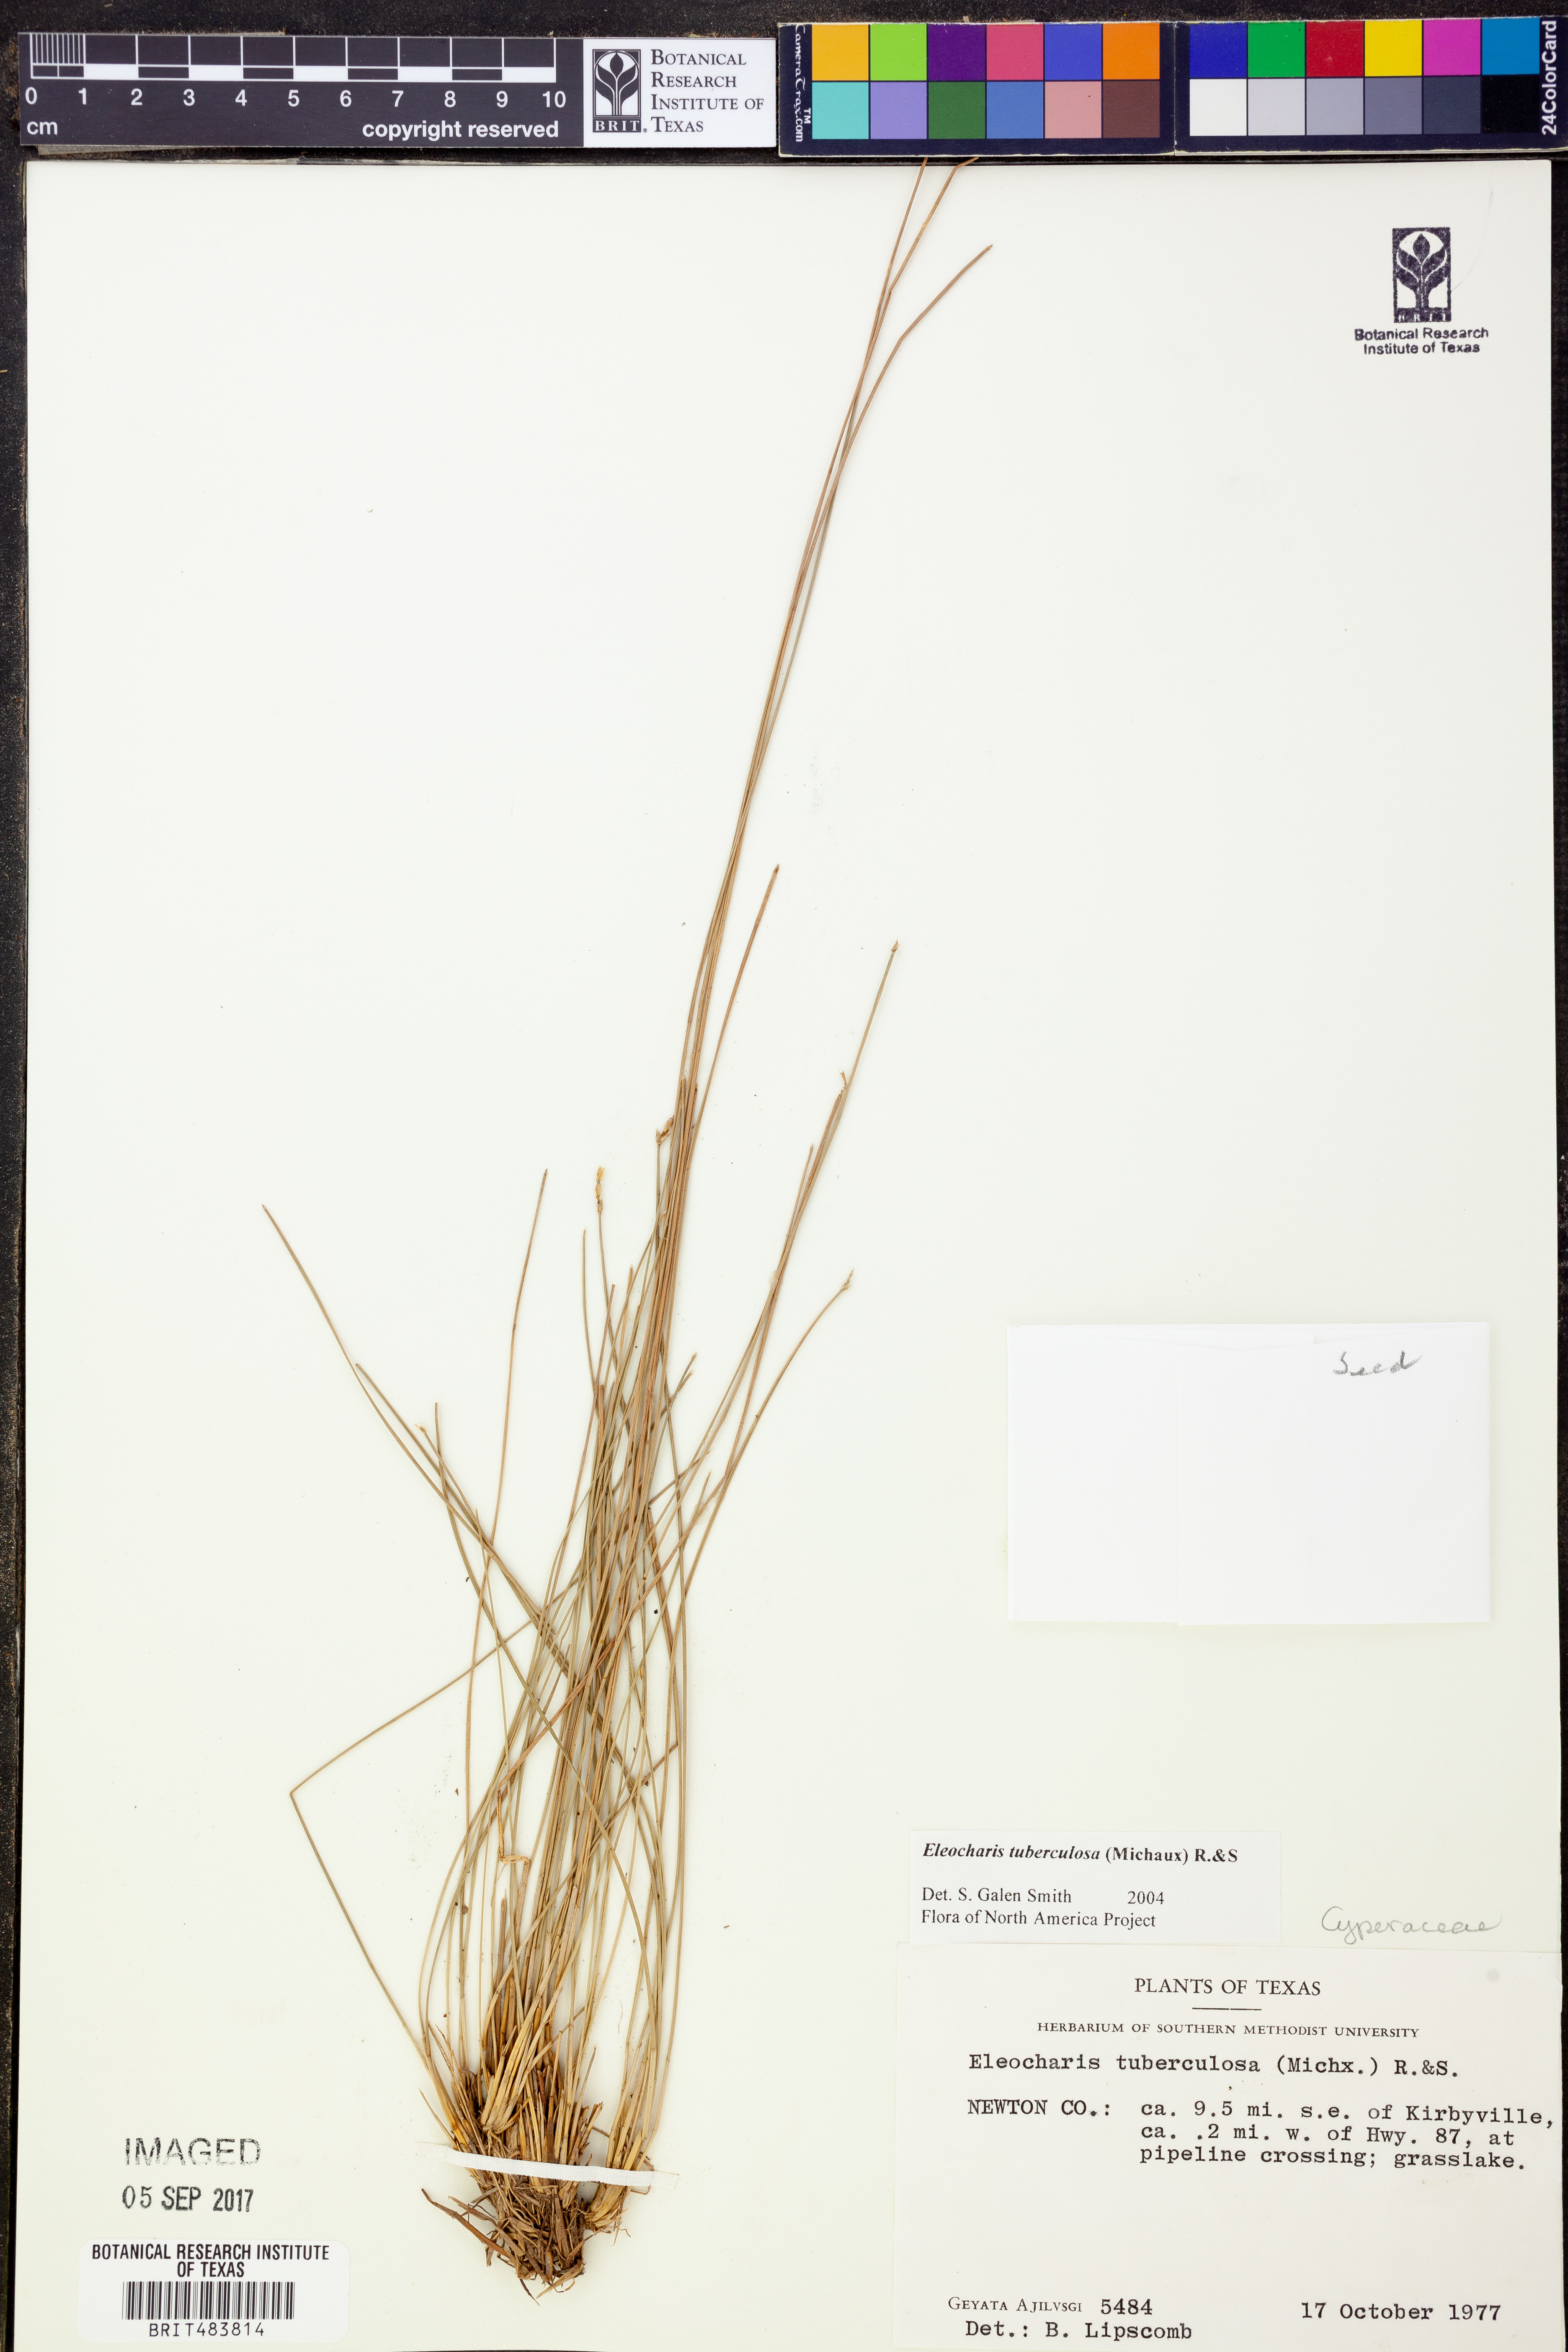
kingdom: Plantae
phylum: Tracheophyta
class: Liliopsida
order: Poales
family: Cyperaceae
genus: Eleocharis
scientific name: Eleocharis tuberculosa
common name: Cone-cup spikerush
